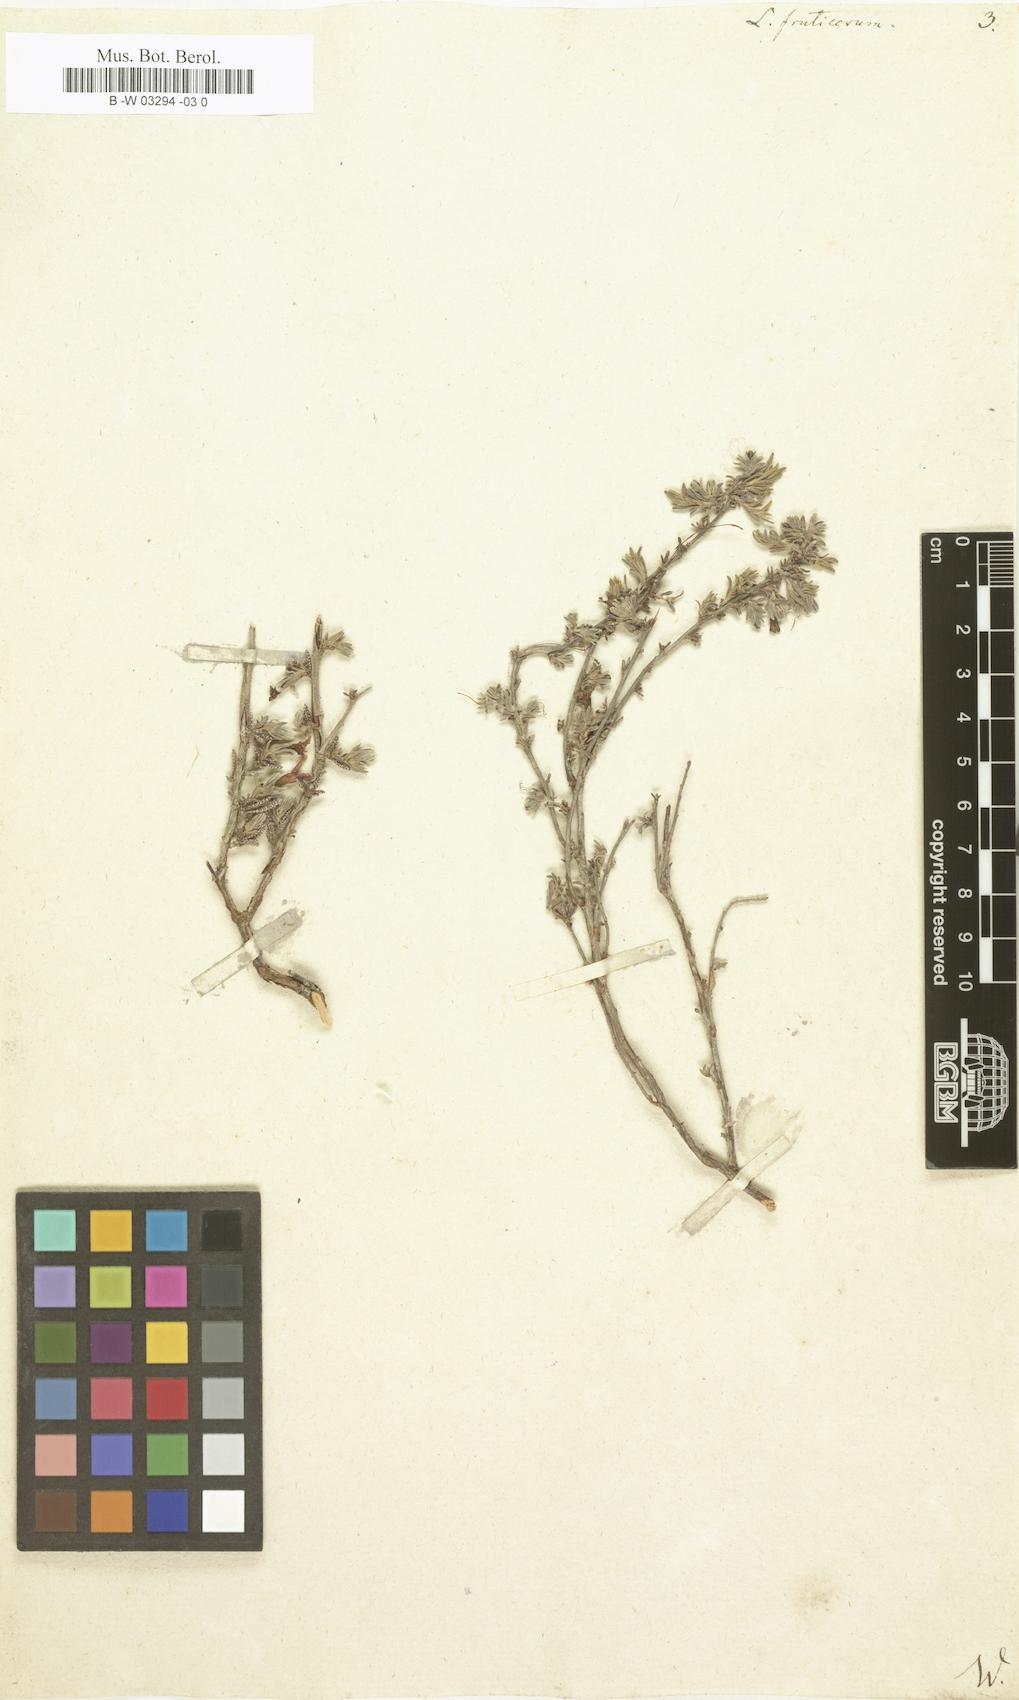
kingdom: Plantae
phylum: Tracheophyta
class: Magnoliopsida
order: Boraginales
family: Boraginaceae
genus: Lithodora
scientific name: Lithodora fruticosa
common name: Shrubby gromwell
